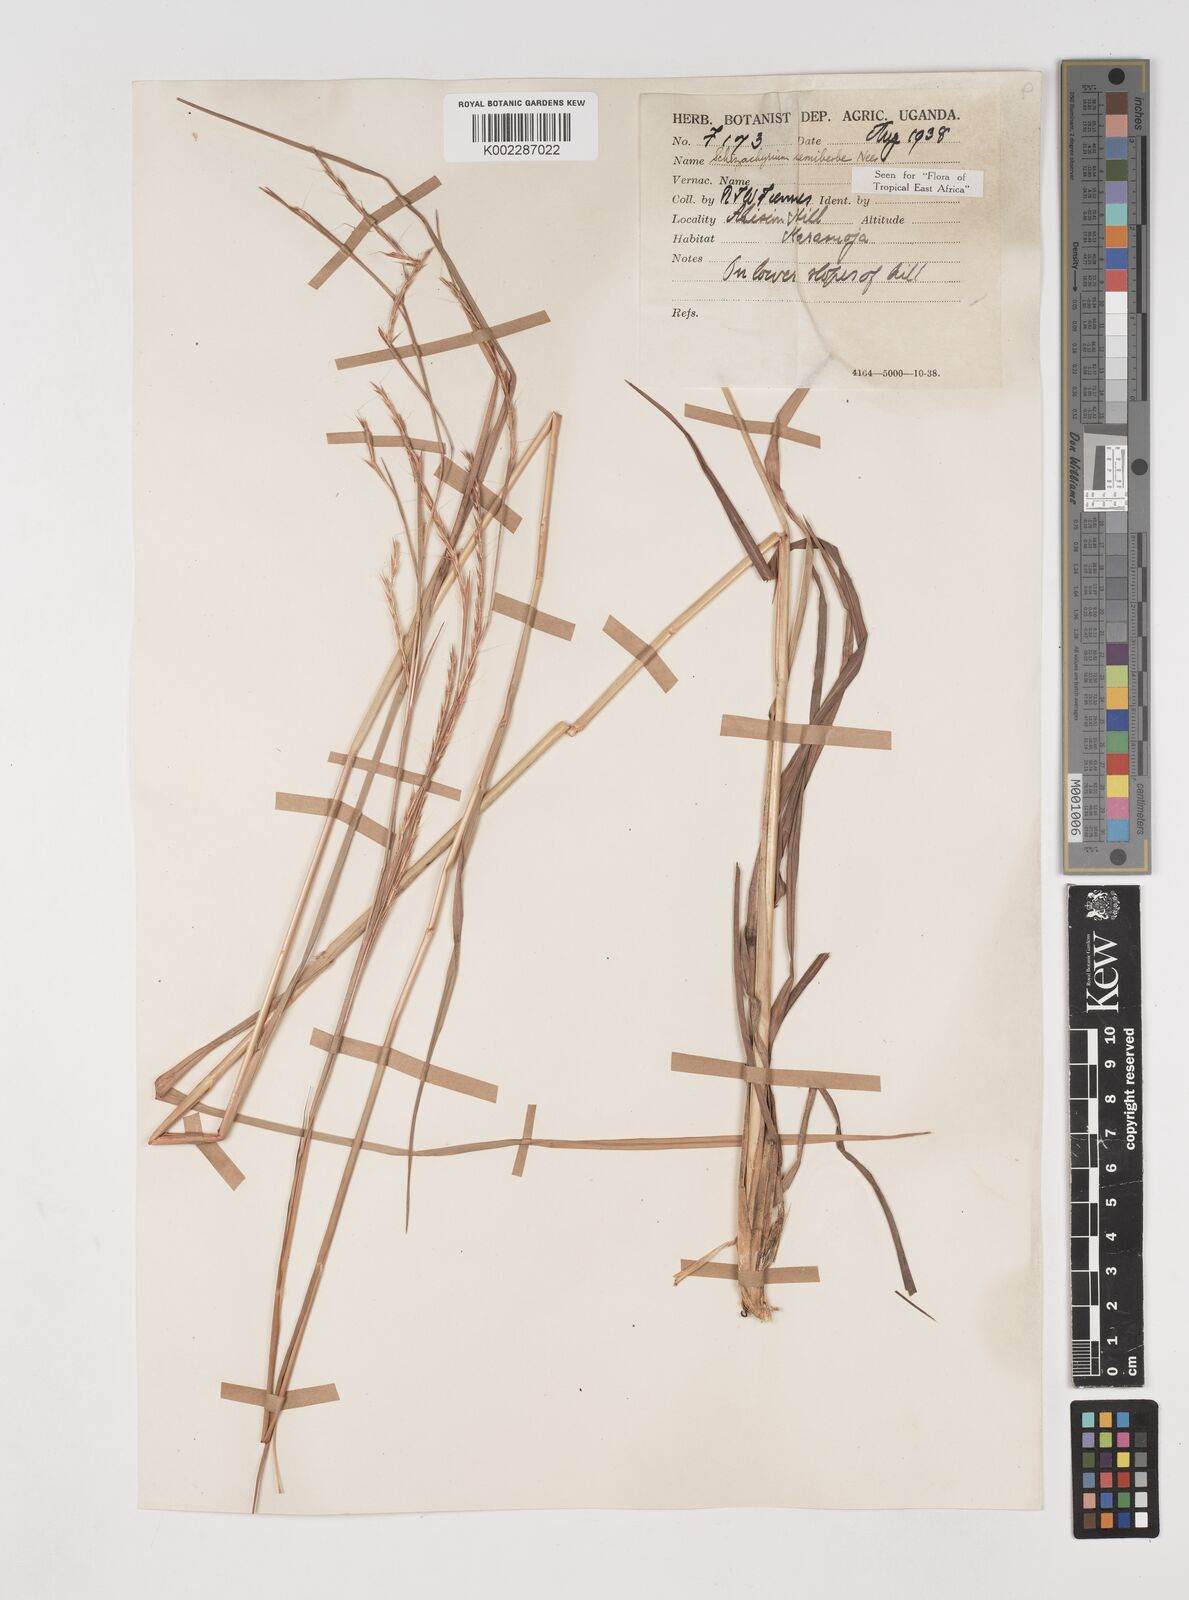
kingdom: Plantae
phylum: Tracheophyta
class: Liliopsida
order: Poales
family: Poaceae
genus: Schizachyrium
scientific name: Schizachyrium sanguineum
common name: Crimson bluestem
